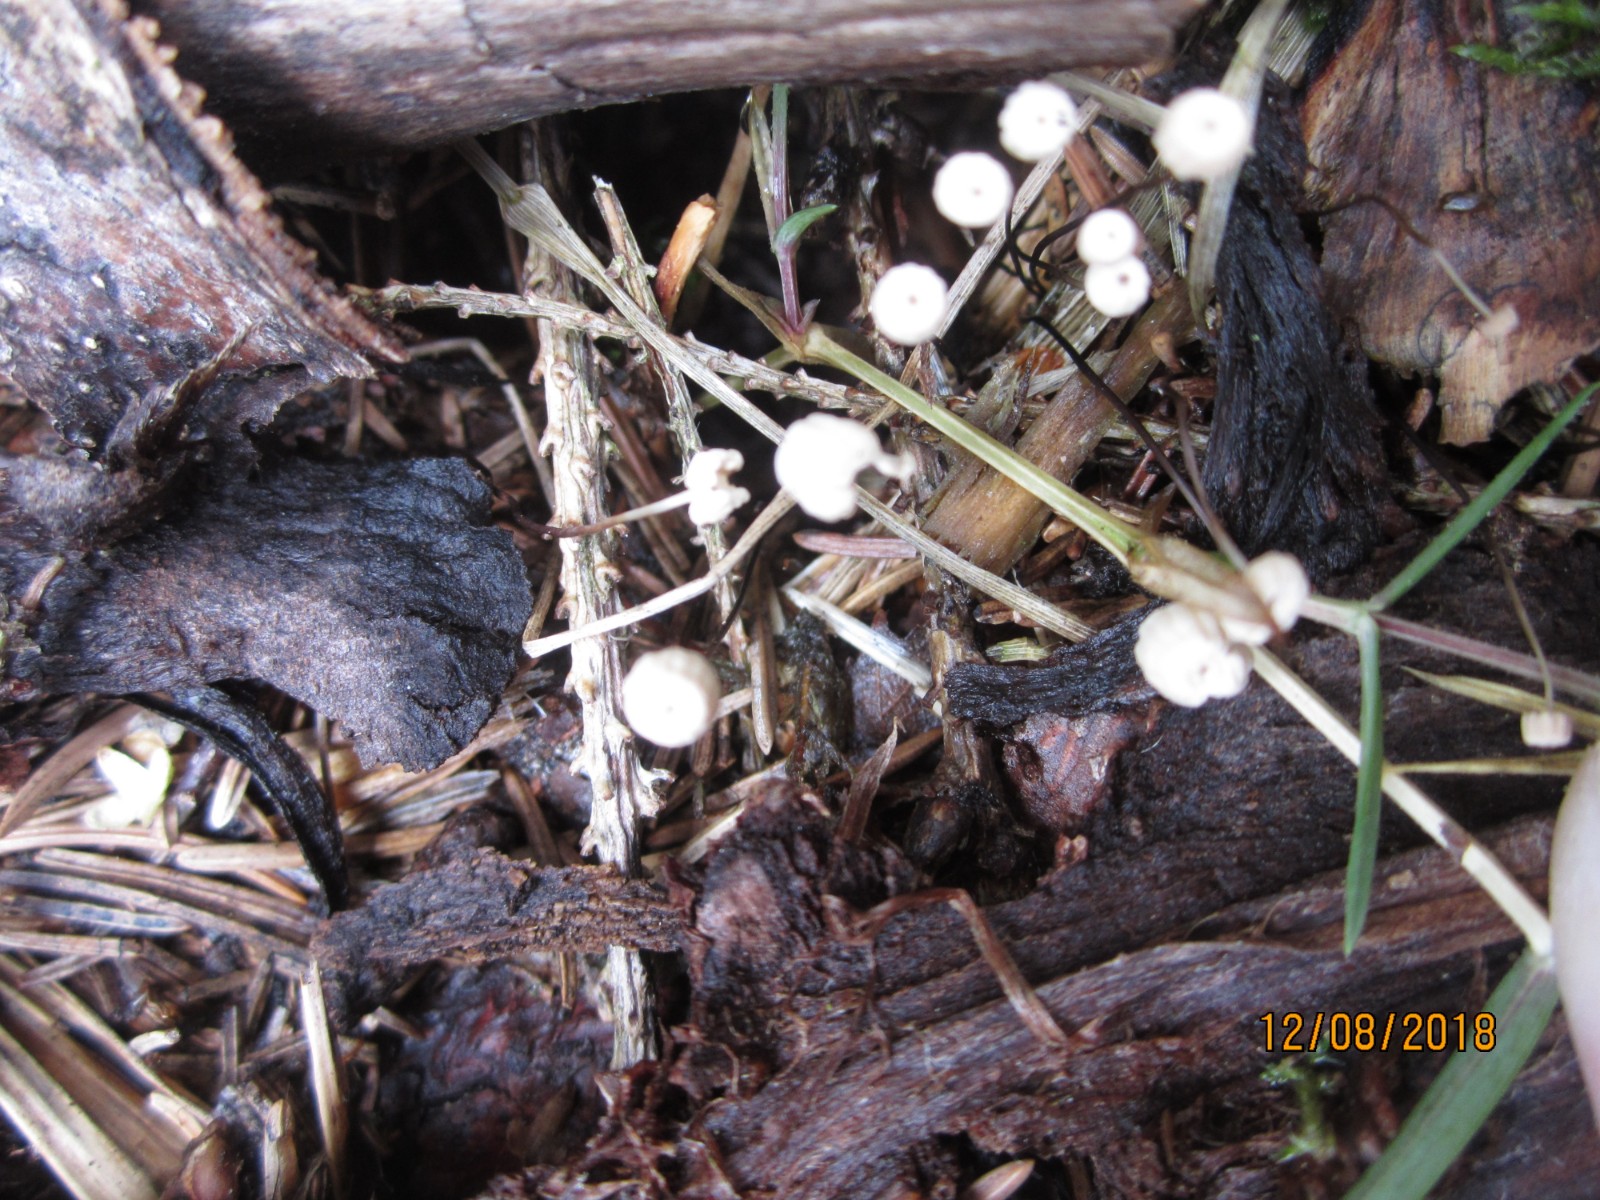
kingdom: Fungi
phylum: Basidiomycota
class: Agaricomycetes
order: Agaricales
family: Omphalotaceae
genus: Paragymnopus
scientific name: Paragymnopus perforans
